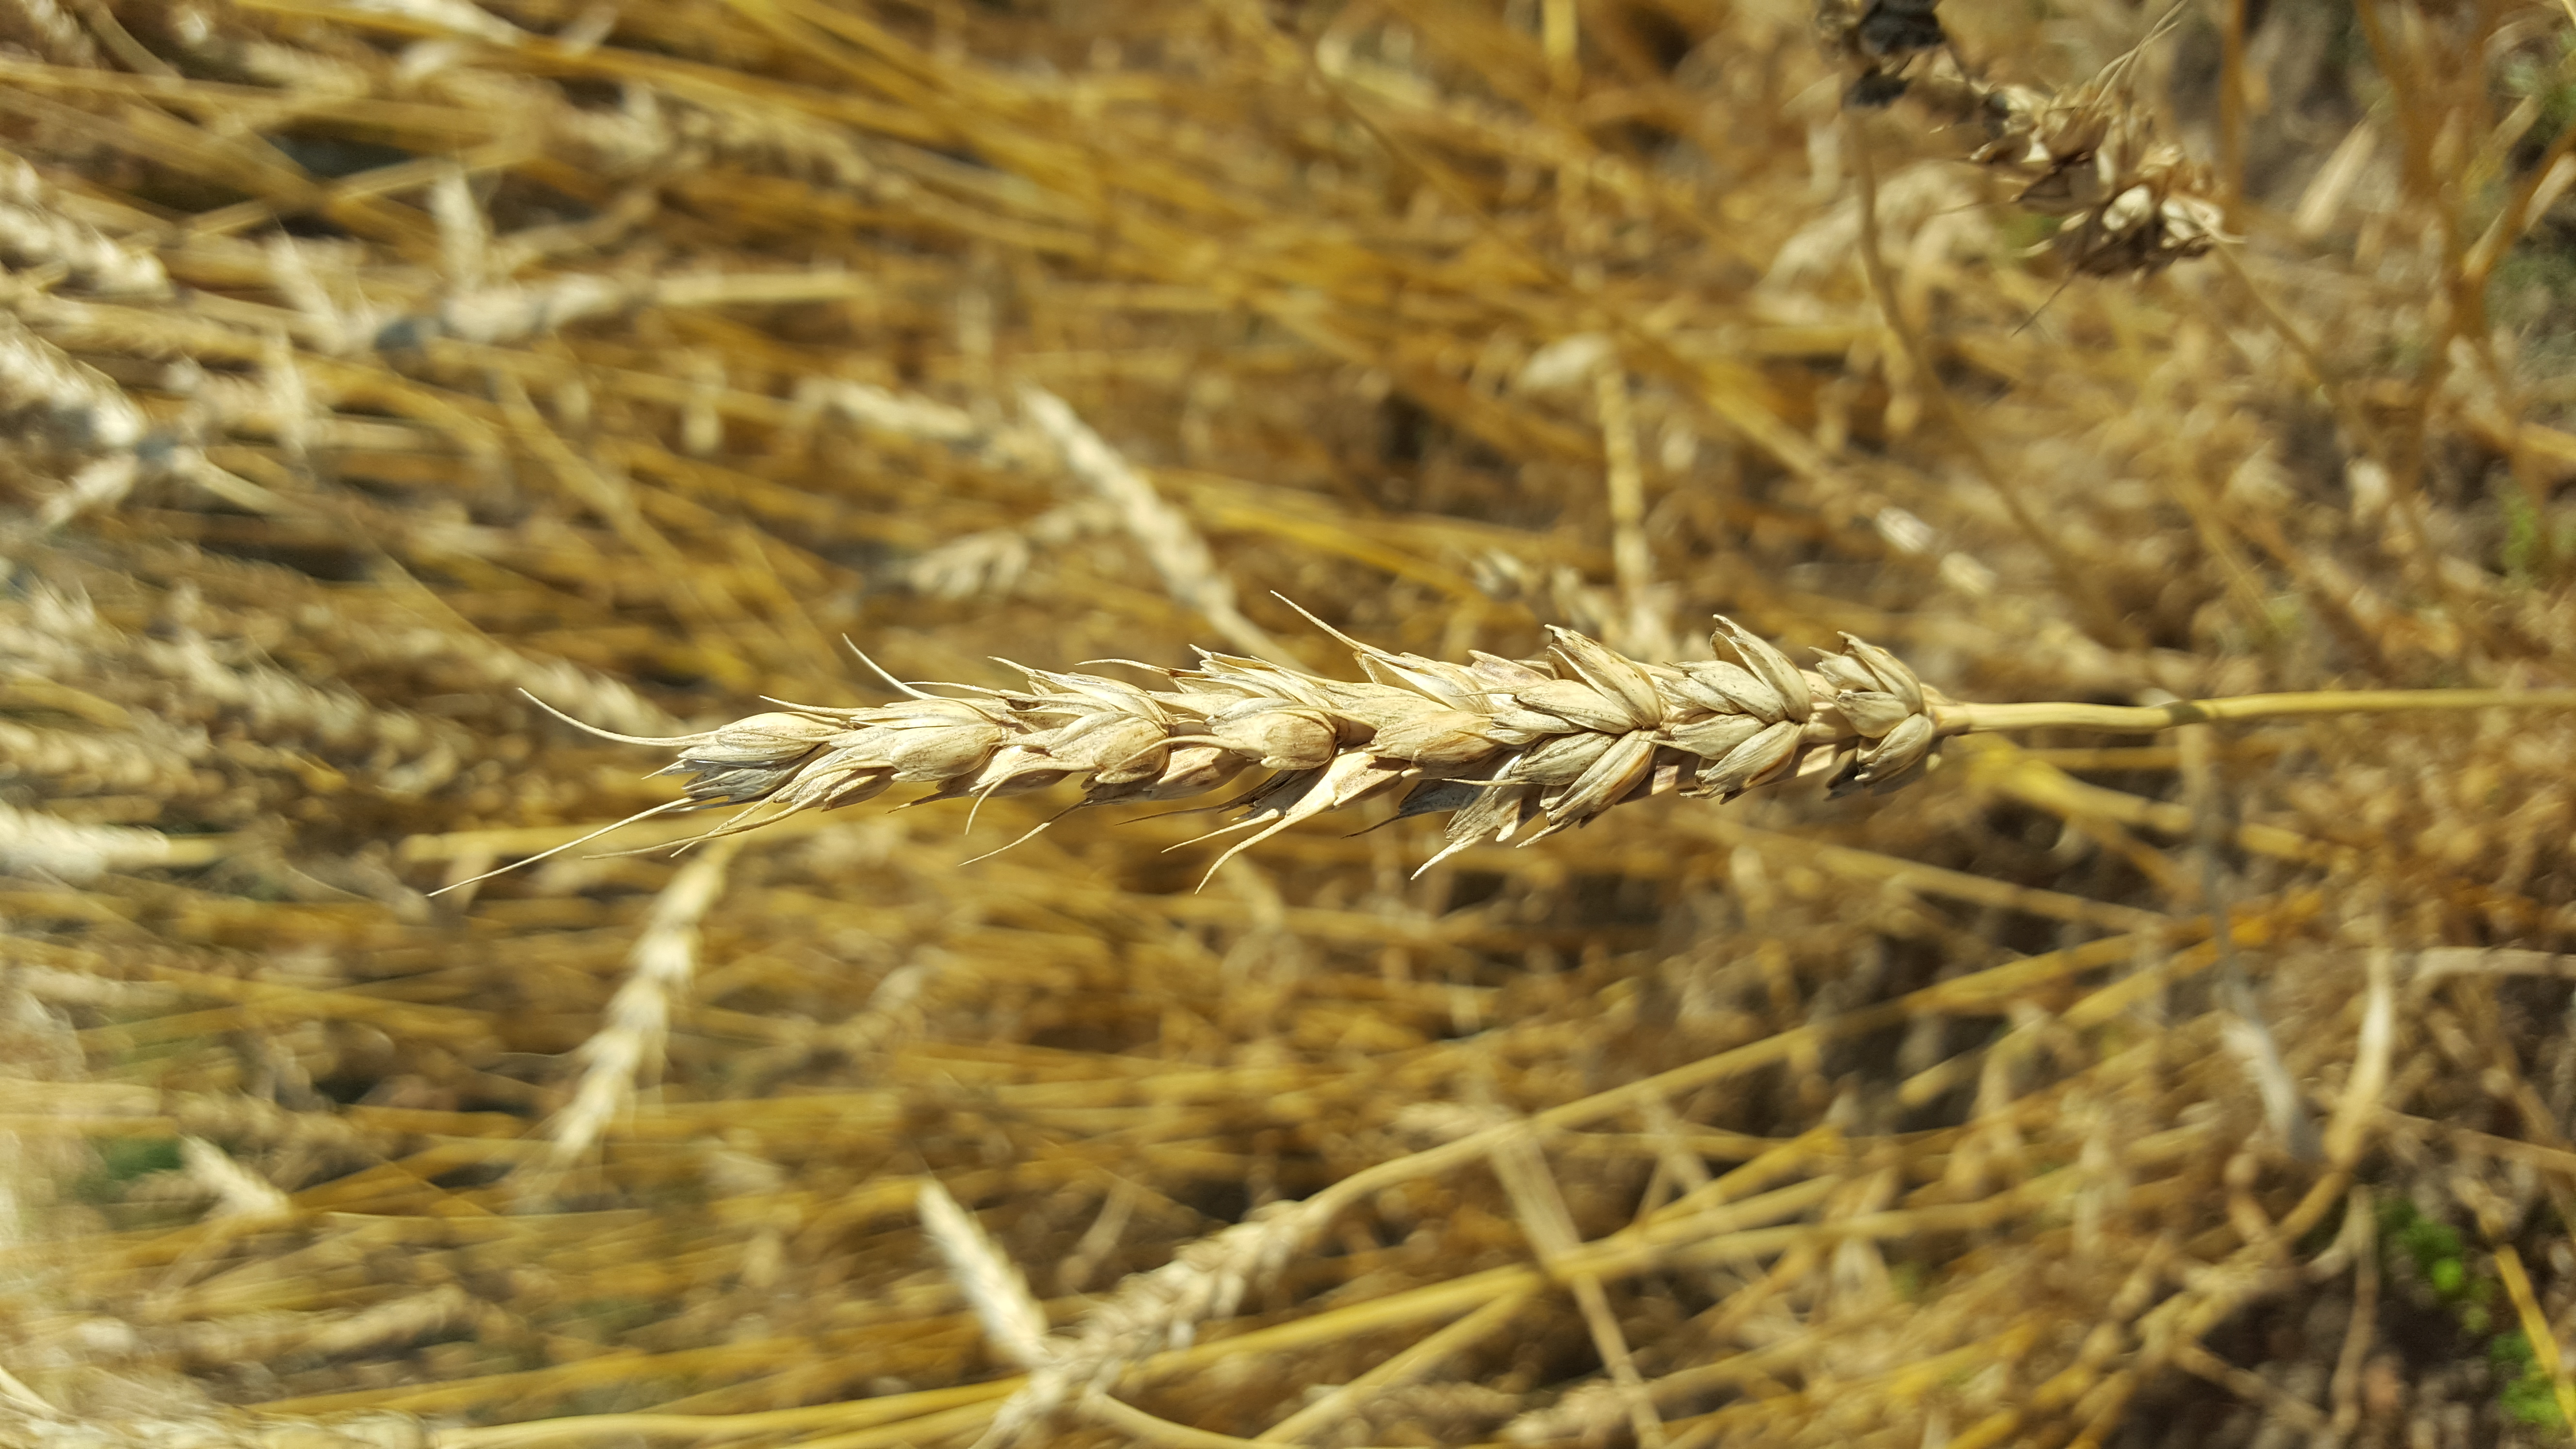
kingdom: Plantae
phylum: Tracheophyta
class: Liliopsida
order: Poales
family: Poaceae
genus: Triticum
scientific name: Triticum aestivum
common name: Common wheat
